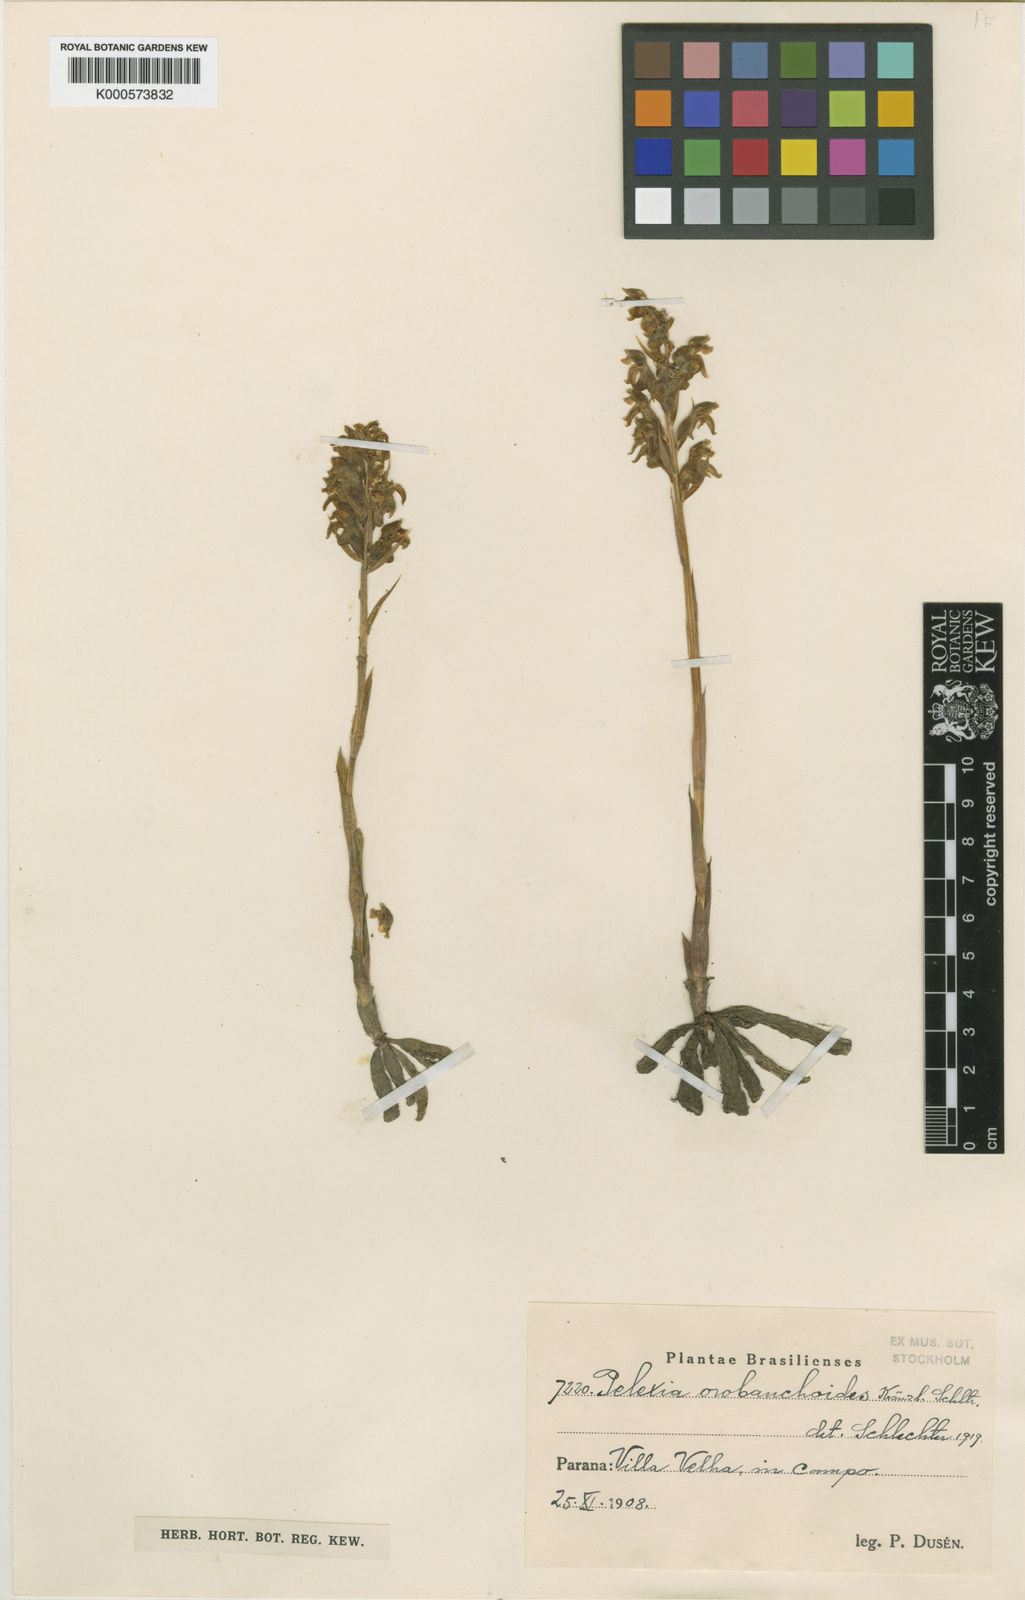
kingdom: Plantae
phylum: Tracheophyta
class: Liliopsida
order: Asparagales
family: Orchidaceae
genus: Pelexia
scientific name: Pelexia orobanchoides
